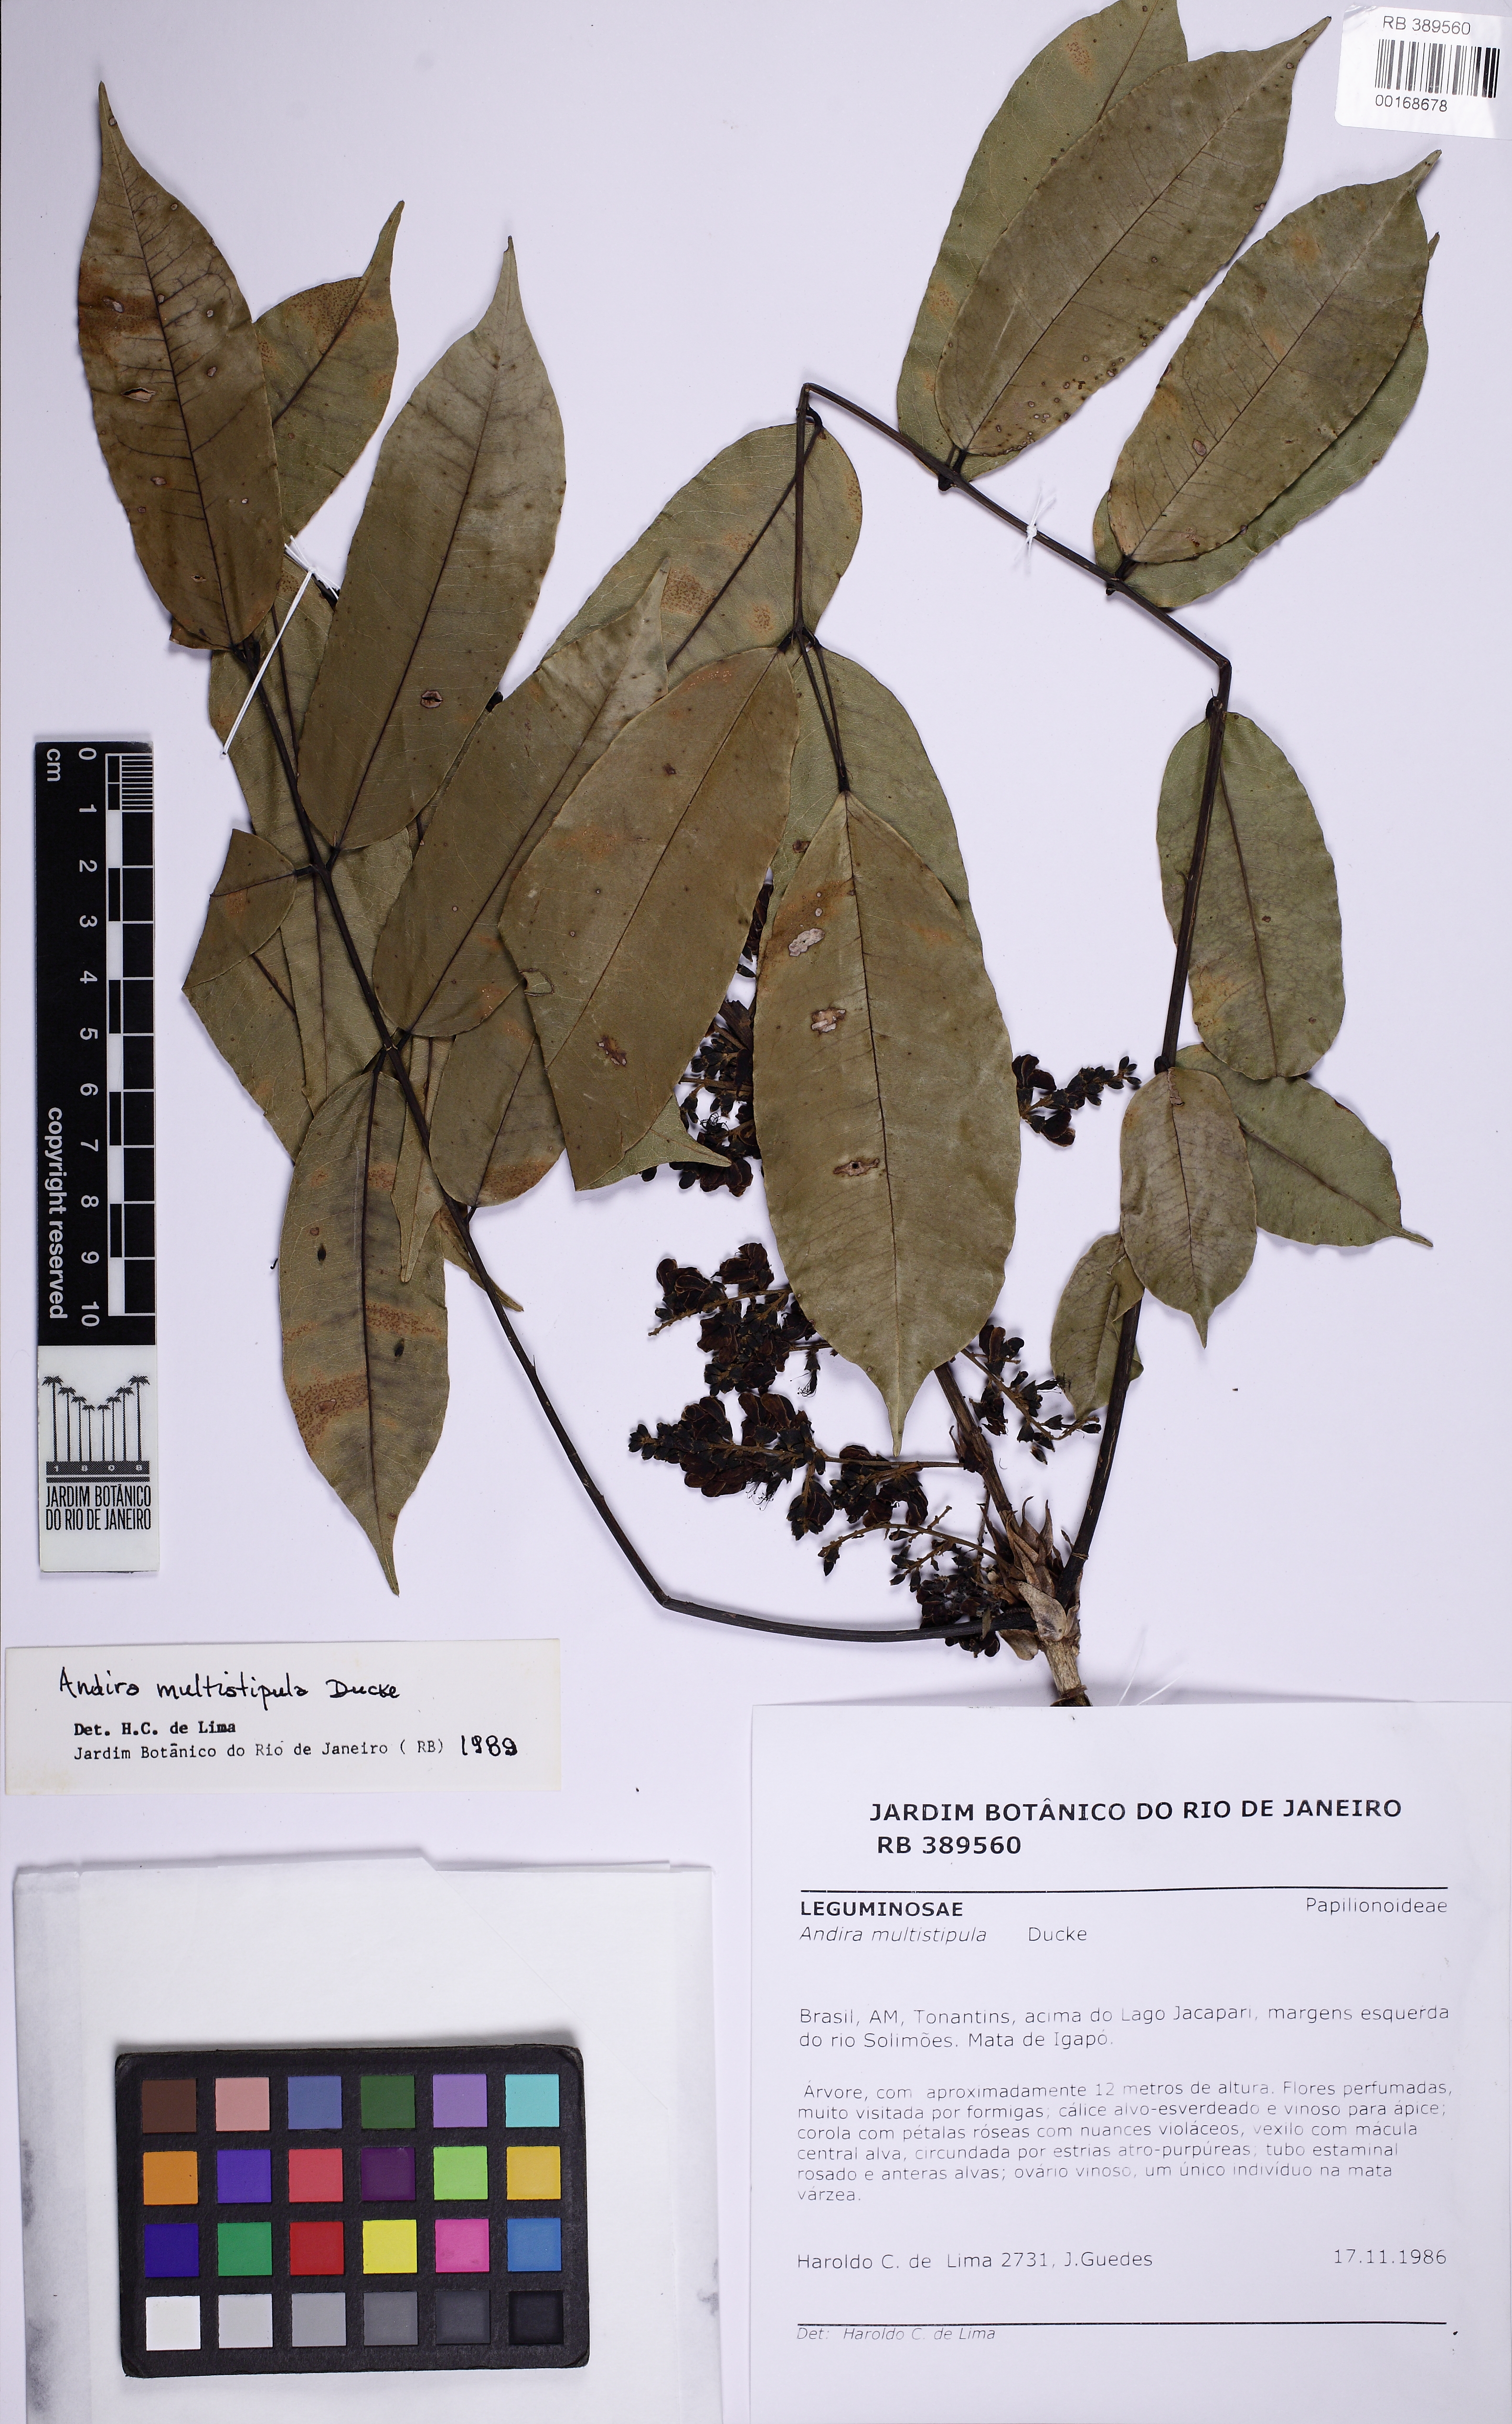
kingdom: Plantae
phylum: Tracheophyta
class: Magnoliopsida
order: Fabales
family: Fabaceae
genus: Andira
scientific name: Andira multistipula
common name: Pisho
